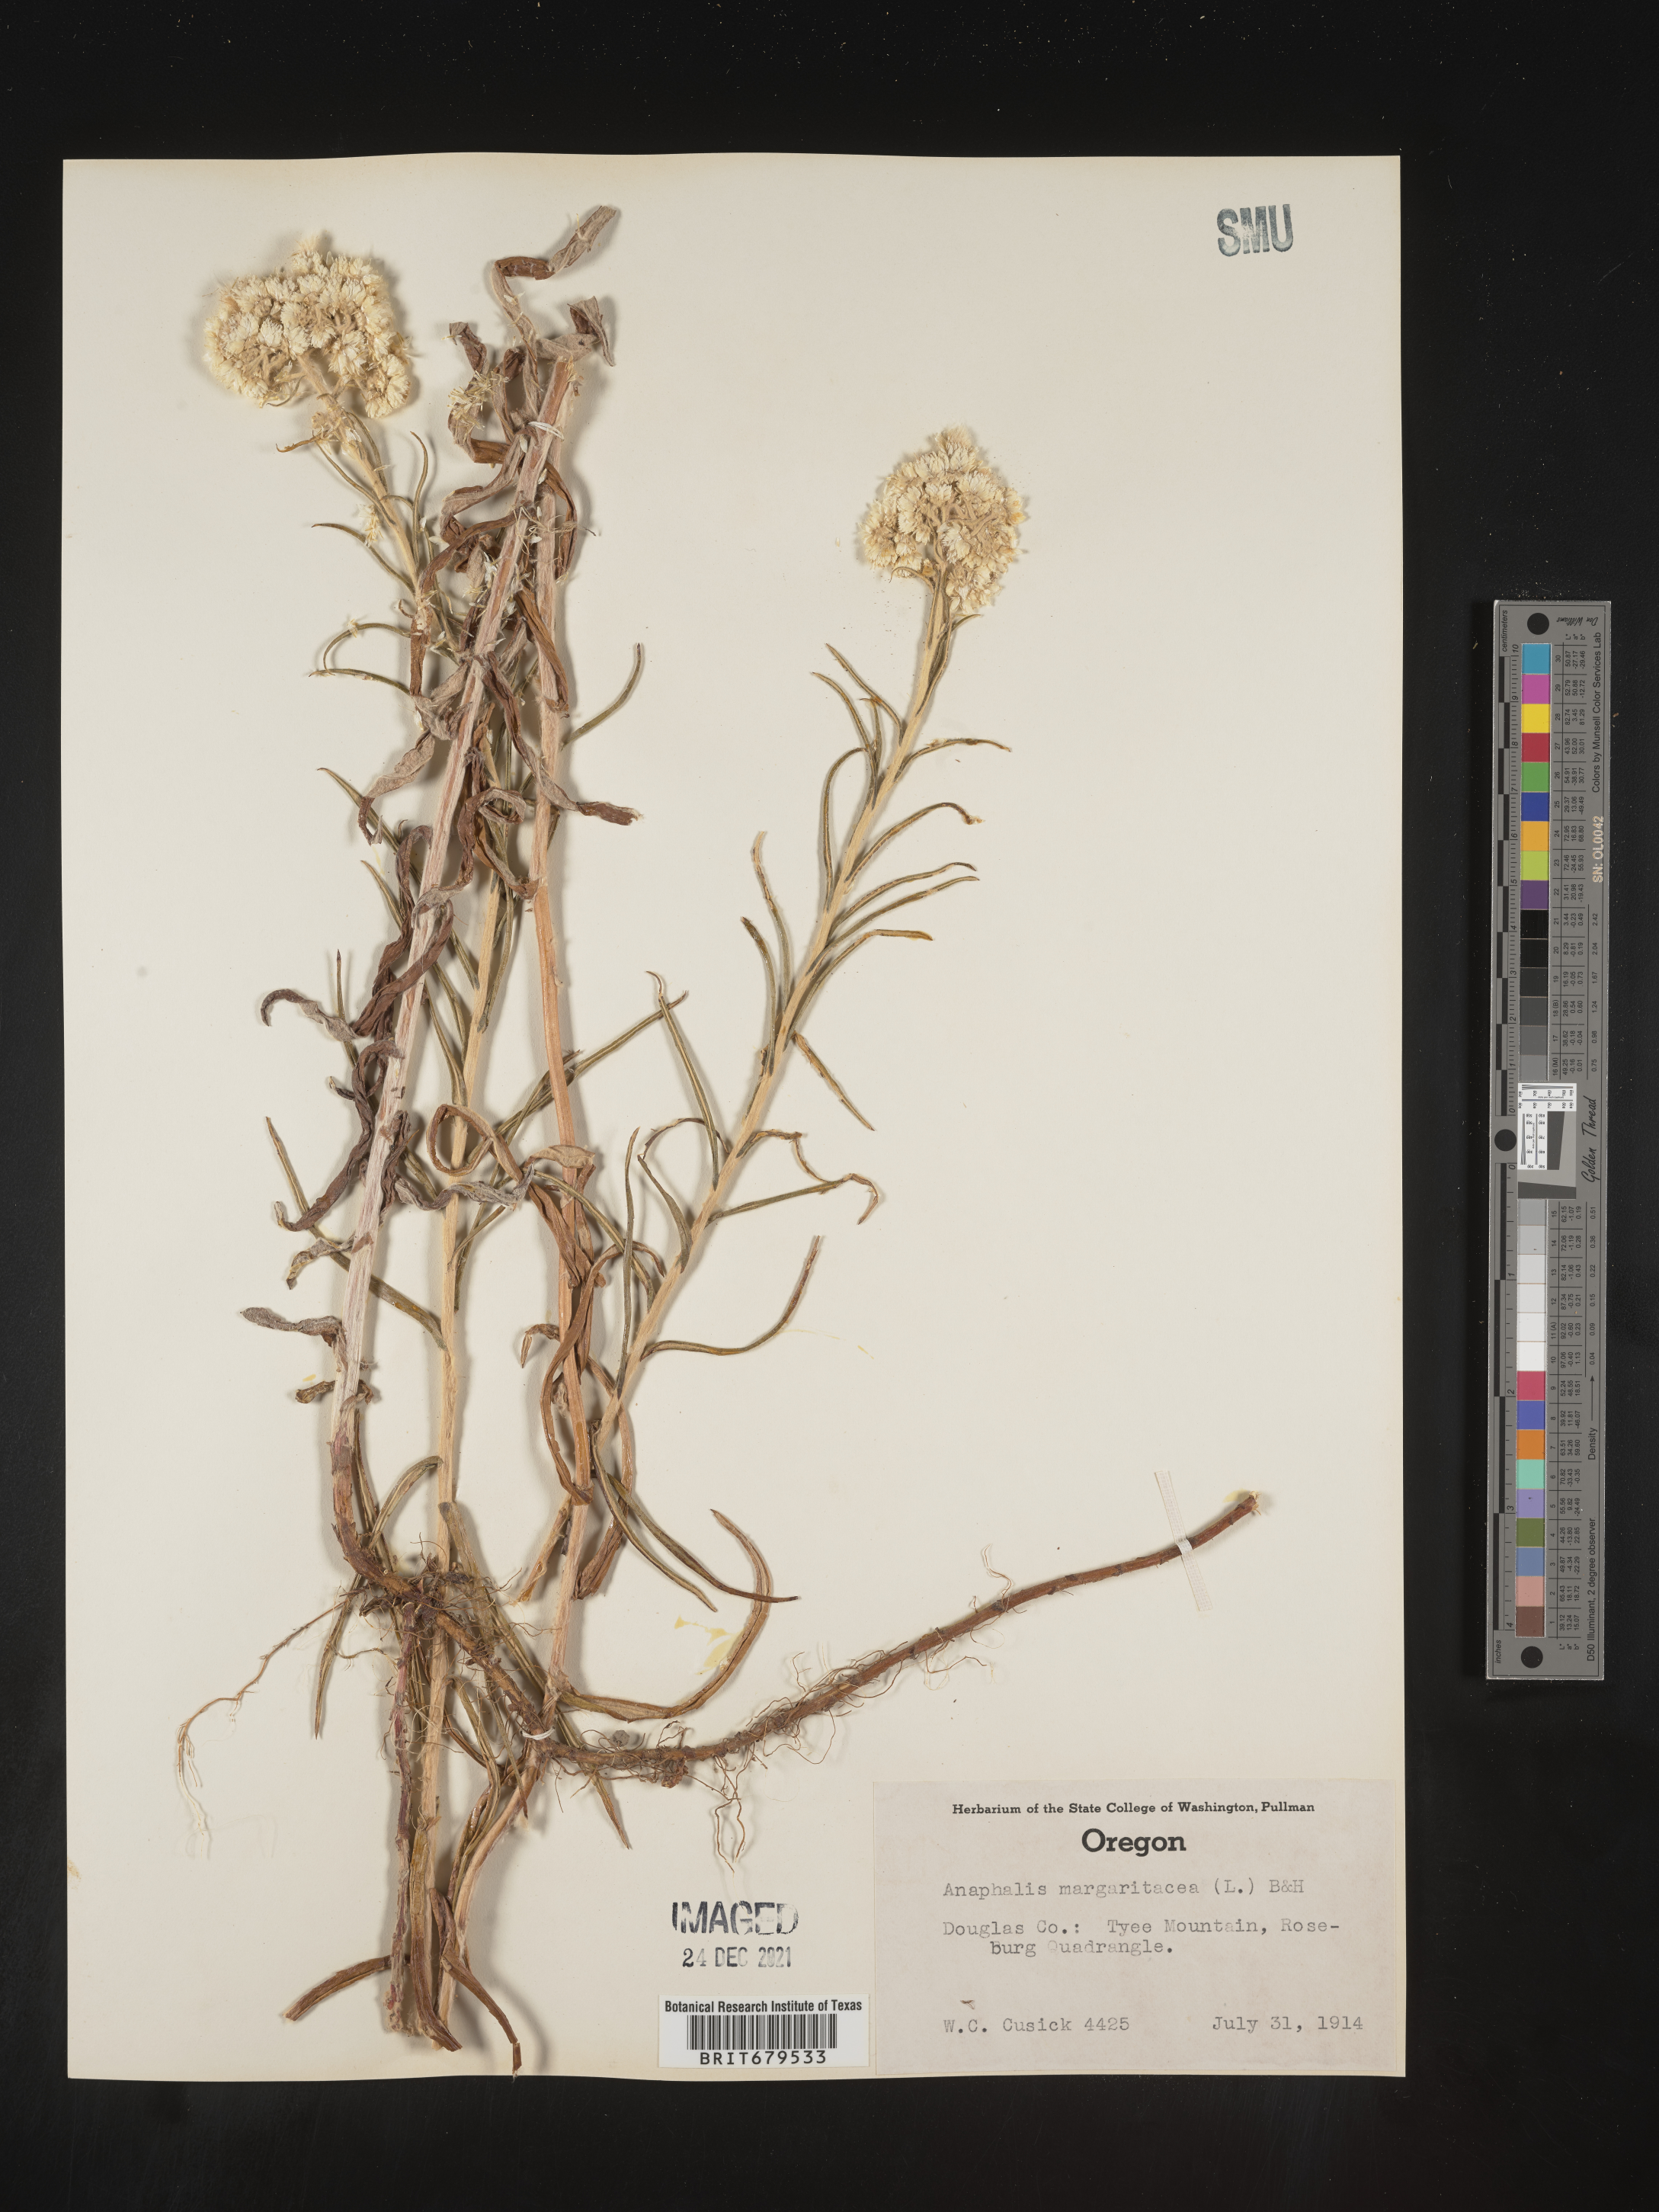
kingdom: Plantae
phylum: Tracheophyta
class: Magnoliopsida
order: Asterales
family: Asteraceae
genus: Anaphalis
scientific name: Anaphalis margaritacea
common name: Pearly everlasting
